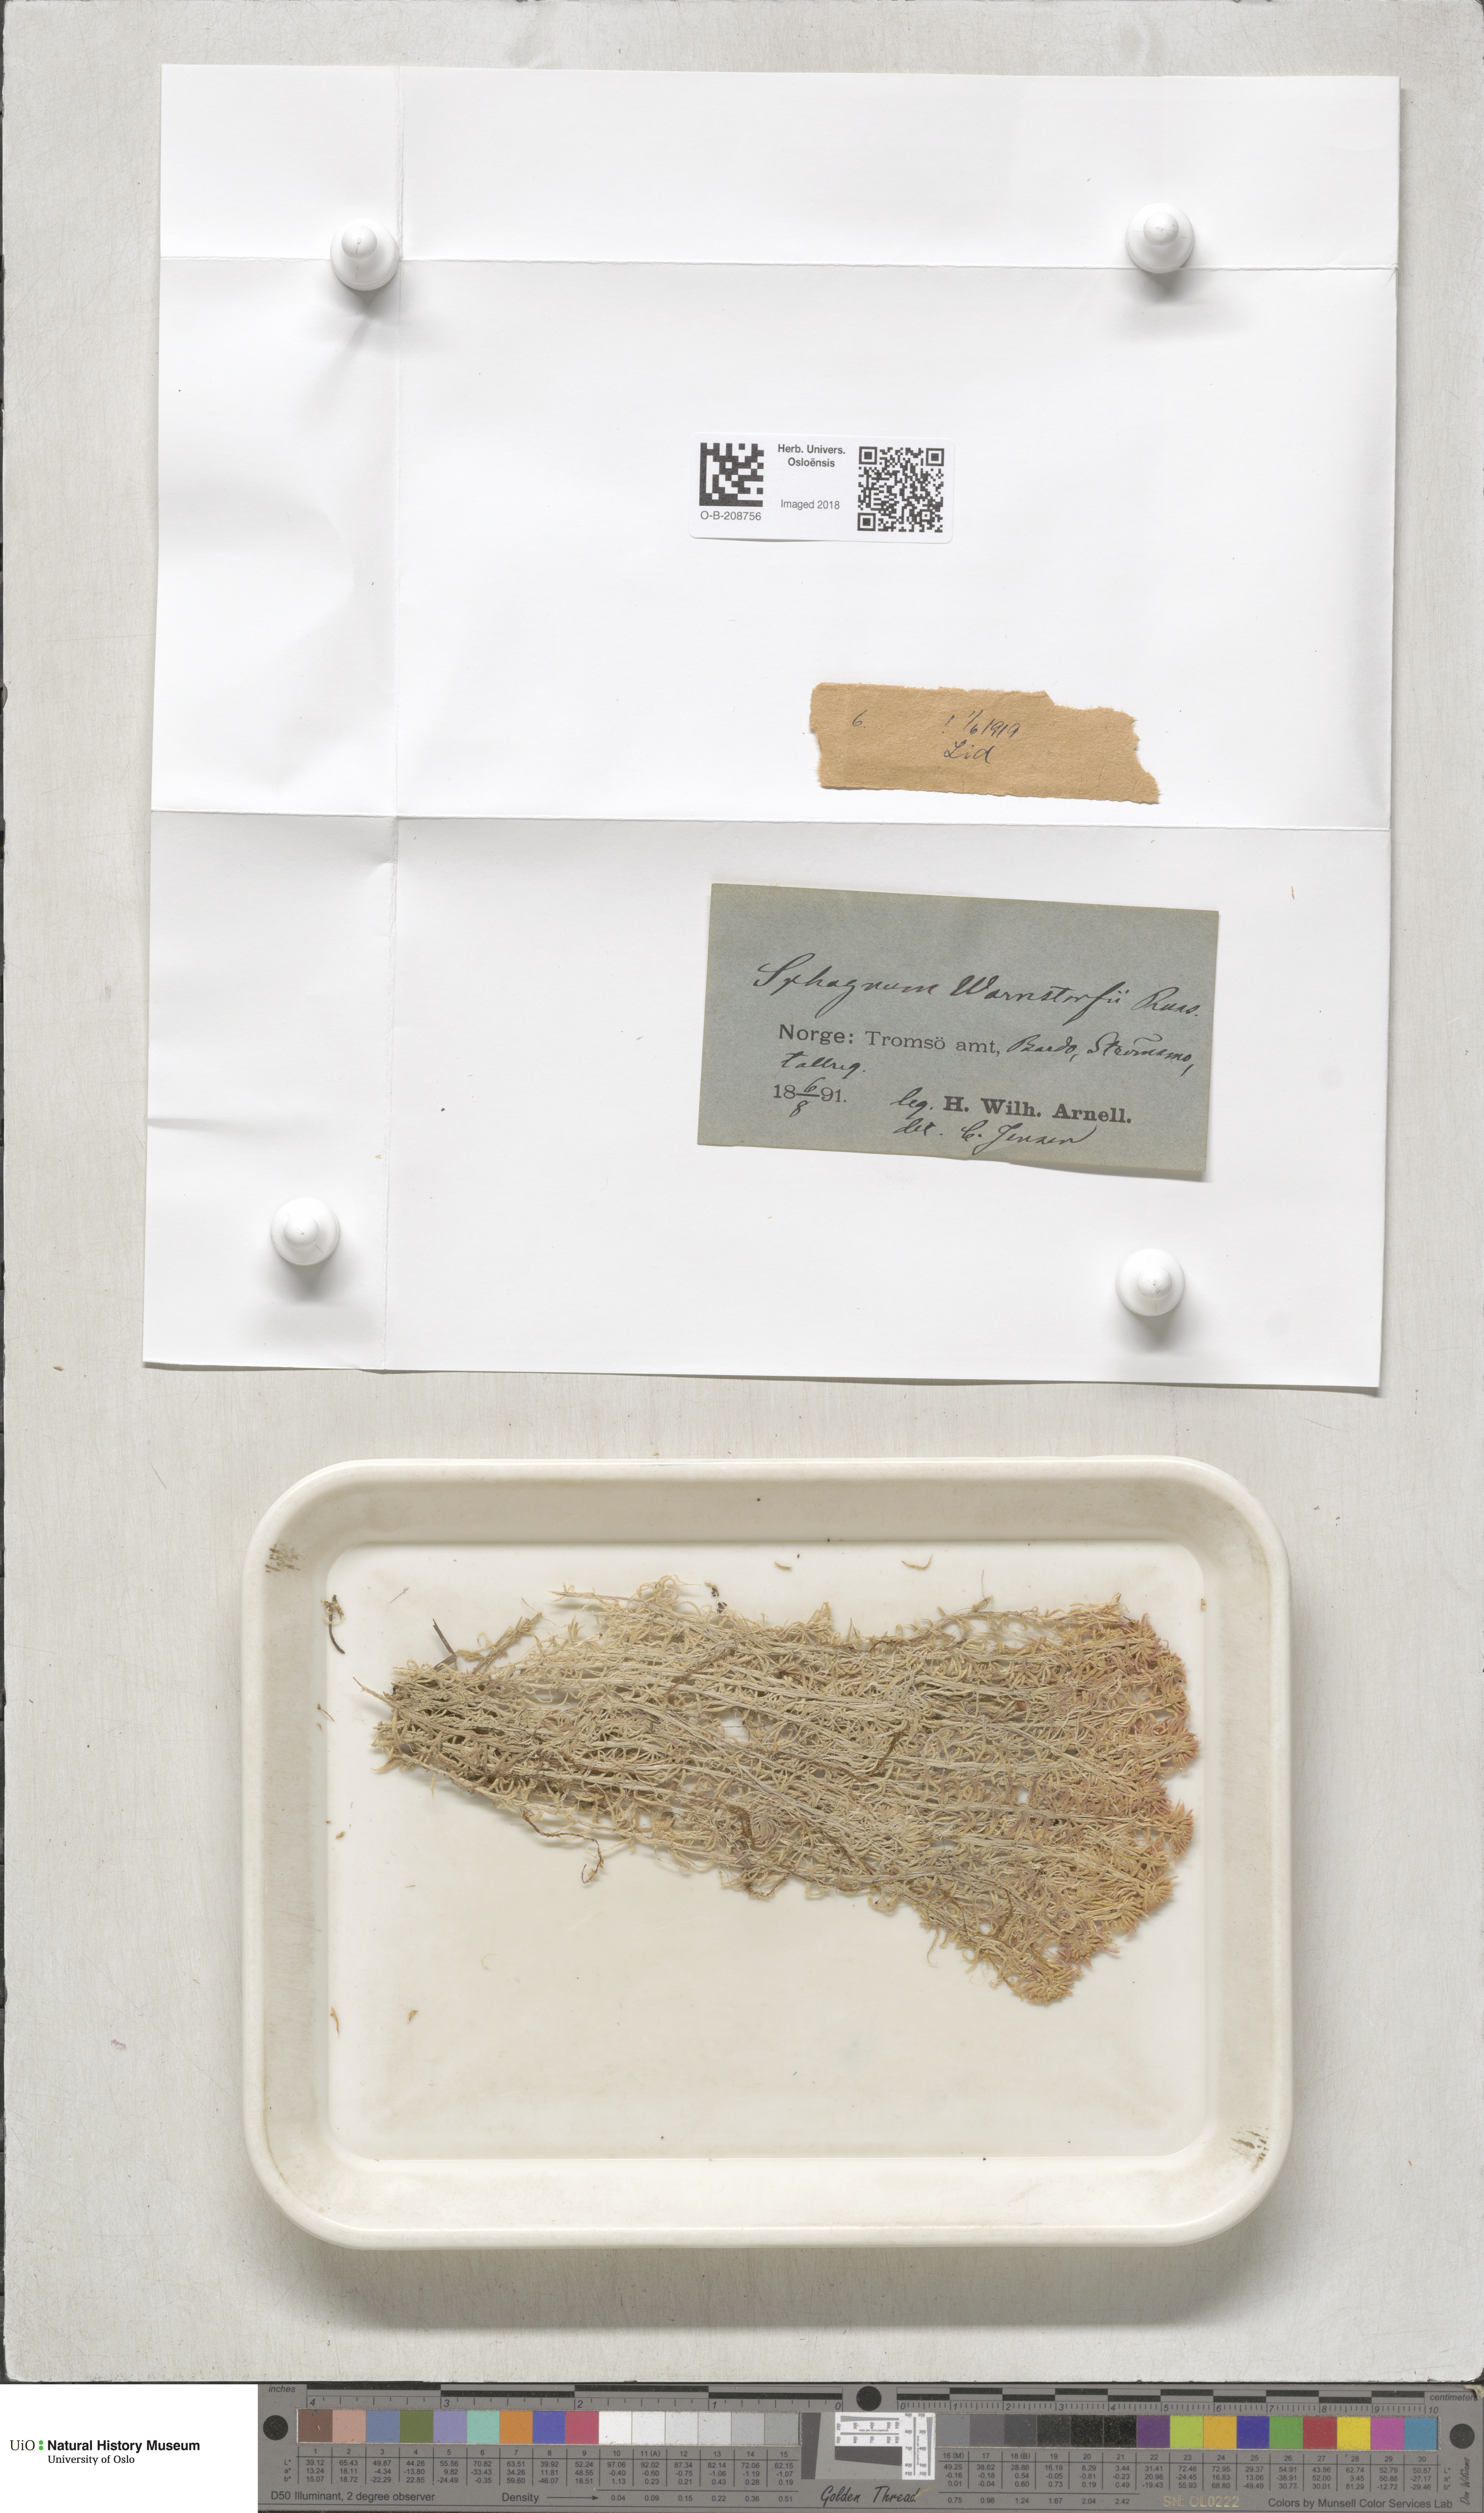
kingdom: Plantae
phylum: Bryophyta
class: Sphagnopsida
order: Sphagnales
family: Sphagnaceae
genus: Sphagnum
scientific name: Sphagnum warnstorfii
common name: Warnstorf's peat moss
